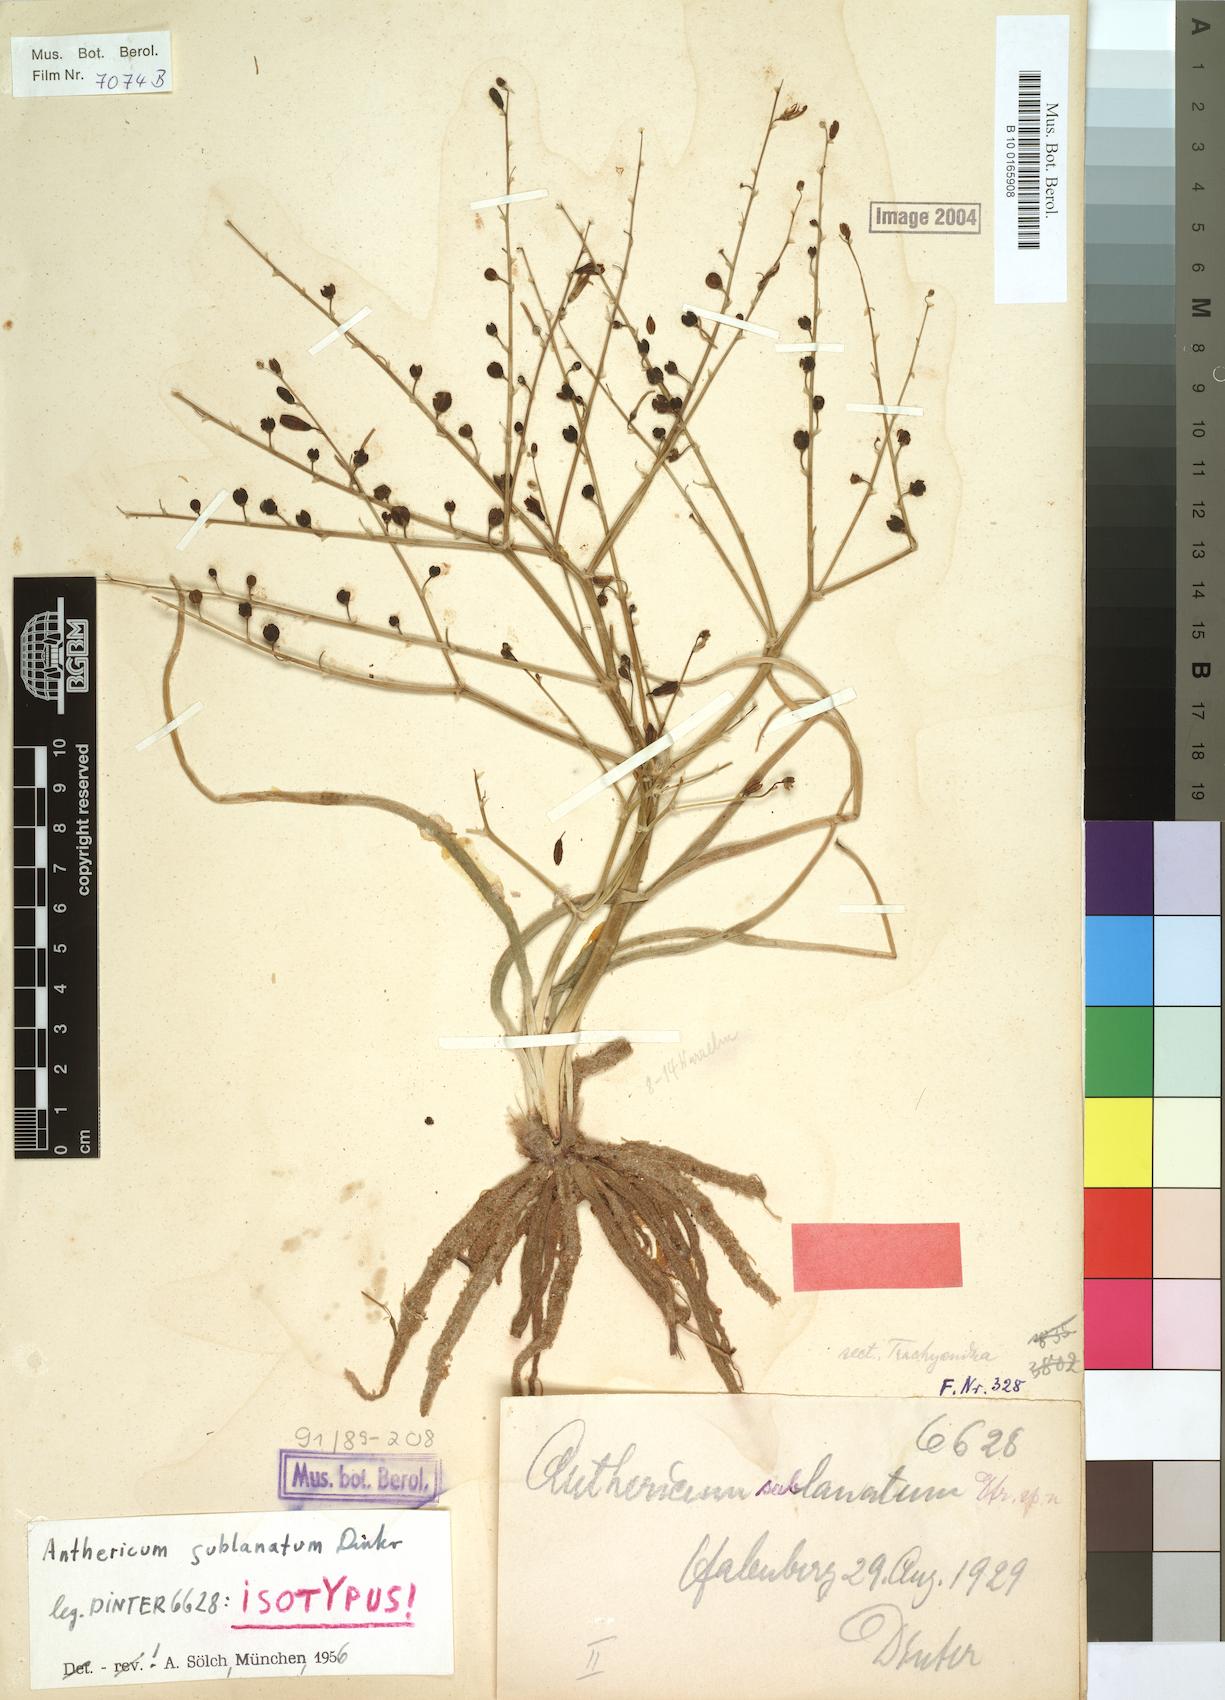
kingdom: Plantae
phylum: Tracheophyta
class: Liliopsida
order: Asparagales
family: Asphodelaceae
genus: Trachyandra
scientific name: Trachyandra lanata
